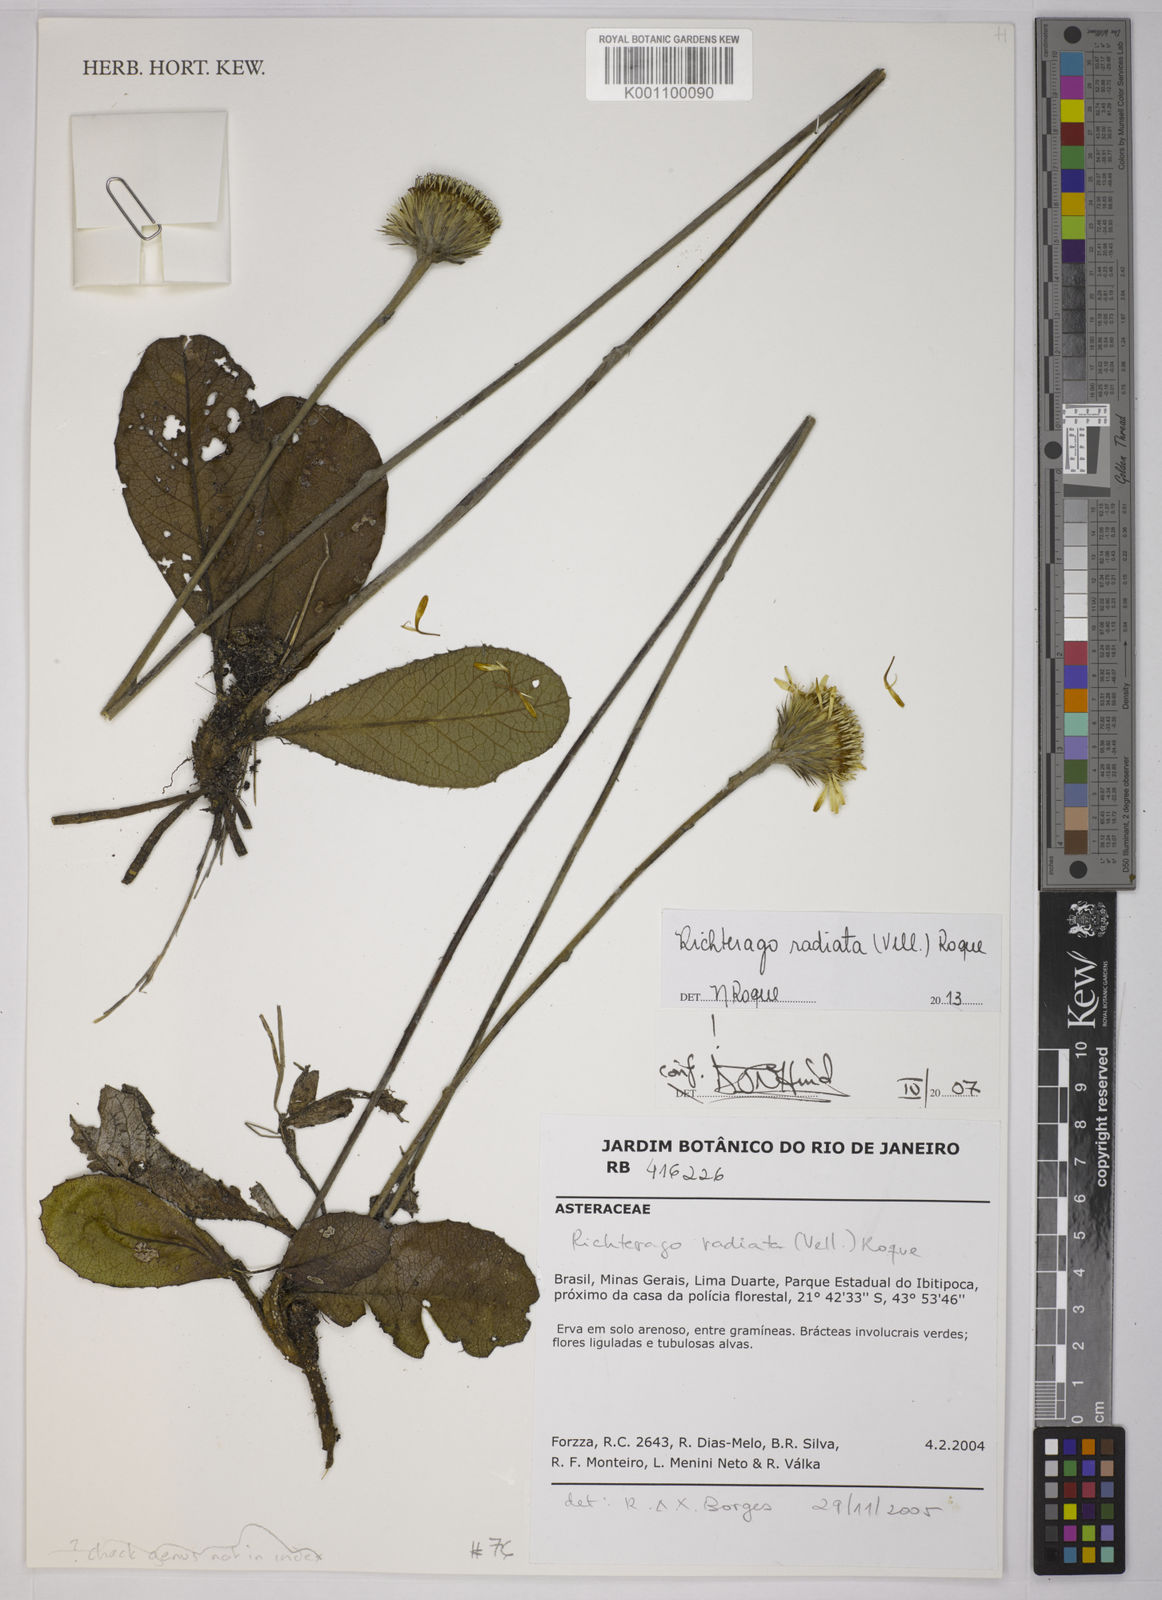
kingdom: Plantae
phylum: Tracheophyta
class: Magnoliopsida
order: Asterales
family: Asteraceae
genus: Richterago
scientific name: Richterago radiata
